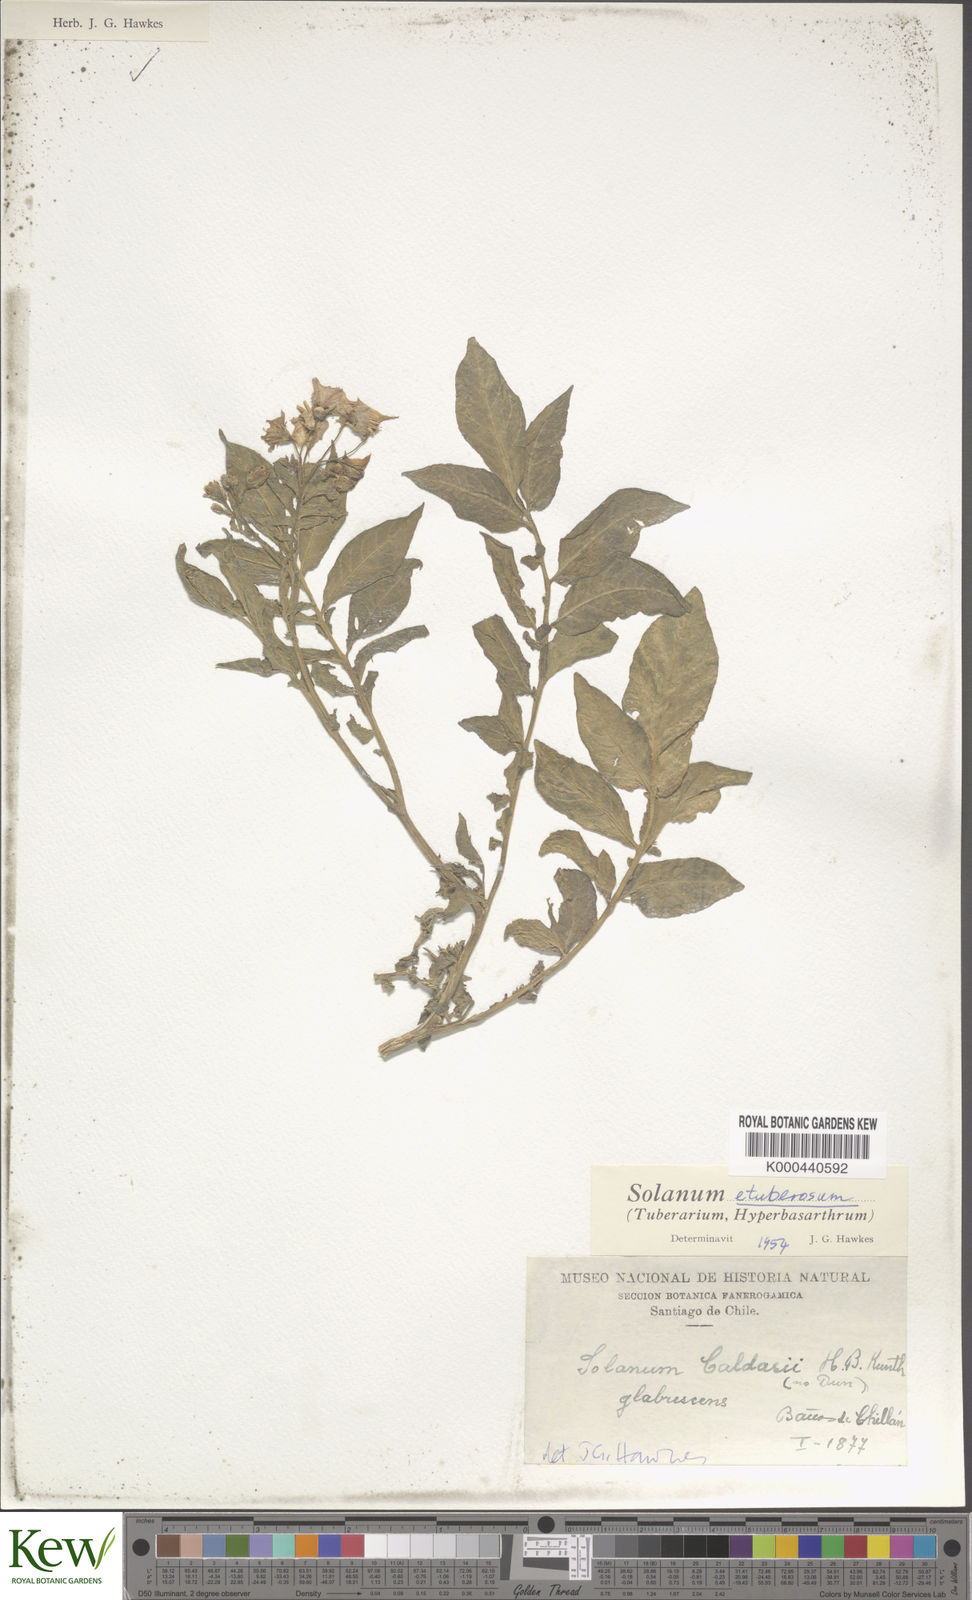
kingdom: Plantae
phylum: Tracheophyta
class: Magnoliopsida
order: Solanales
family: Solanaceae
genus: Solanum
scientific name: Solanum etuberosum
